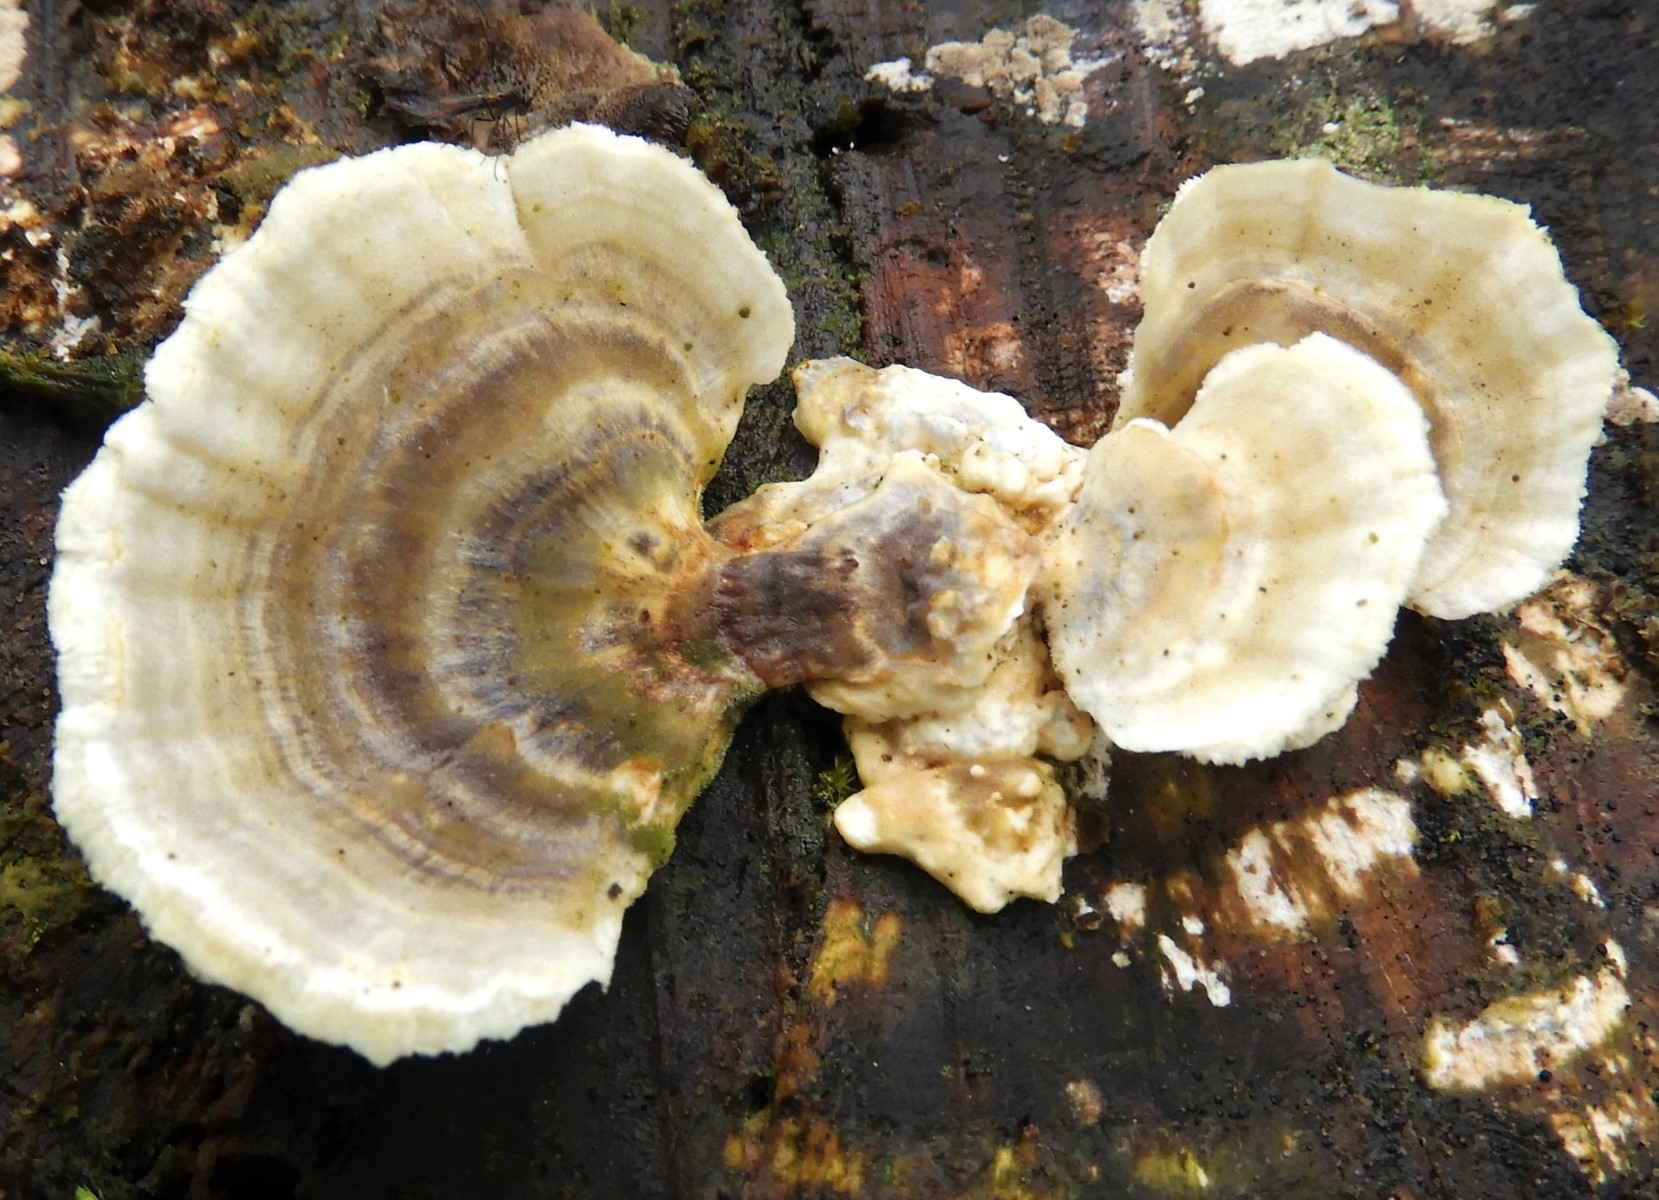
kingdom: Fungi
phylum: Basidiomycota
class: Agaricomycetes
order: Polyporales
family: Polyporaceae
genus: Trametes
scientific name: Trametes versicolor
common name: broget læderporesvamp
